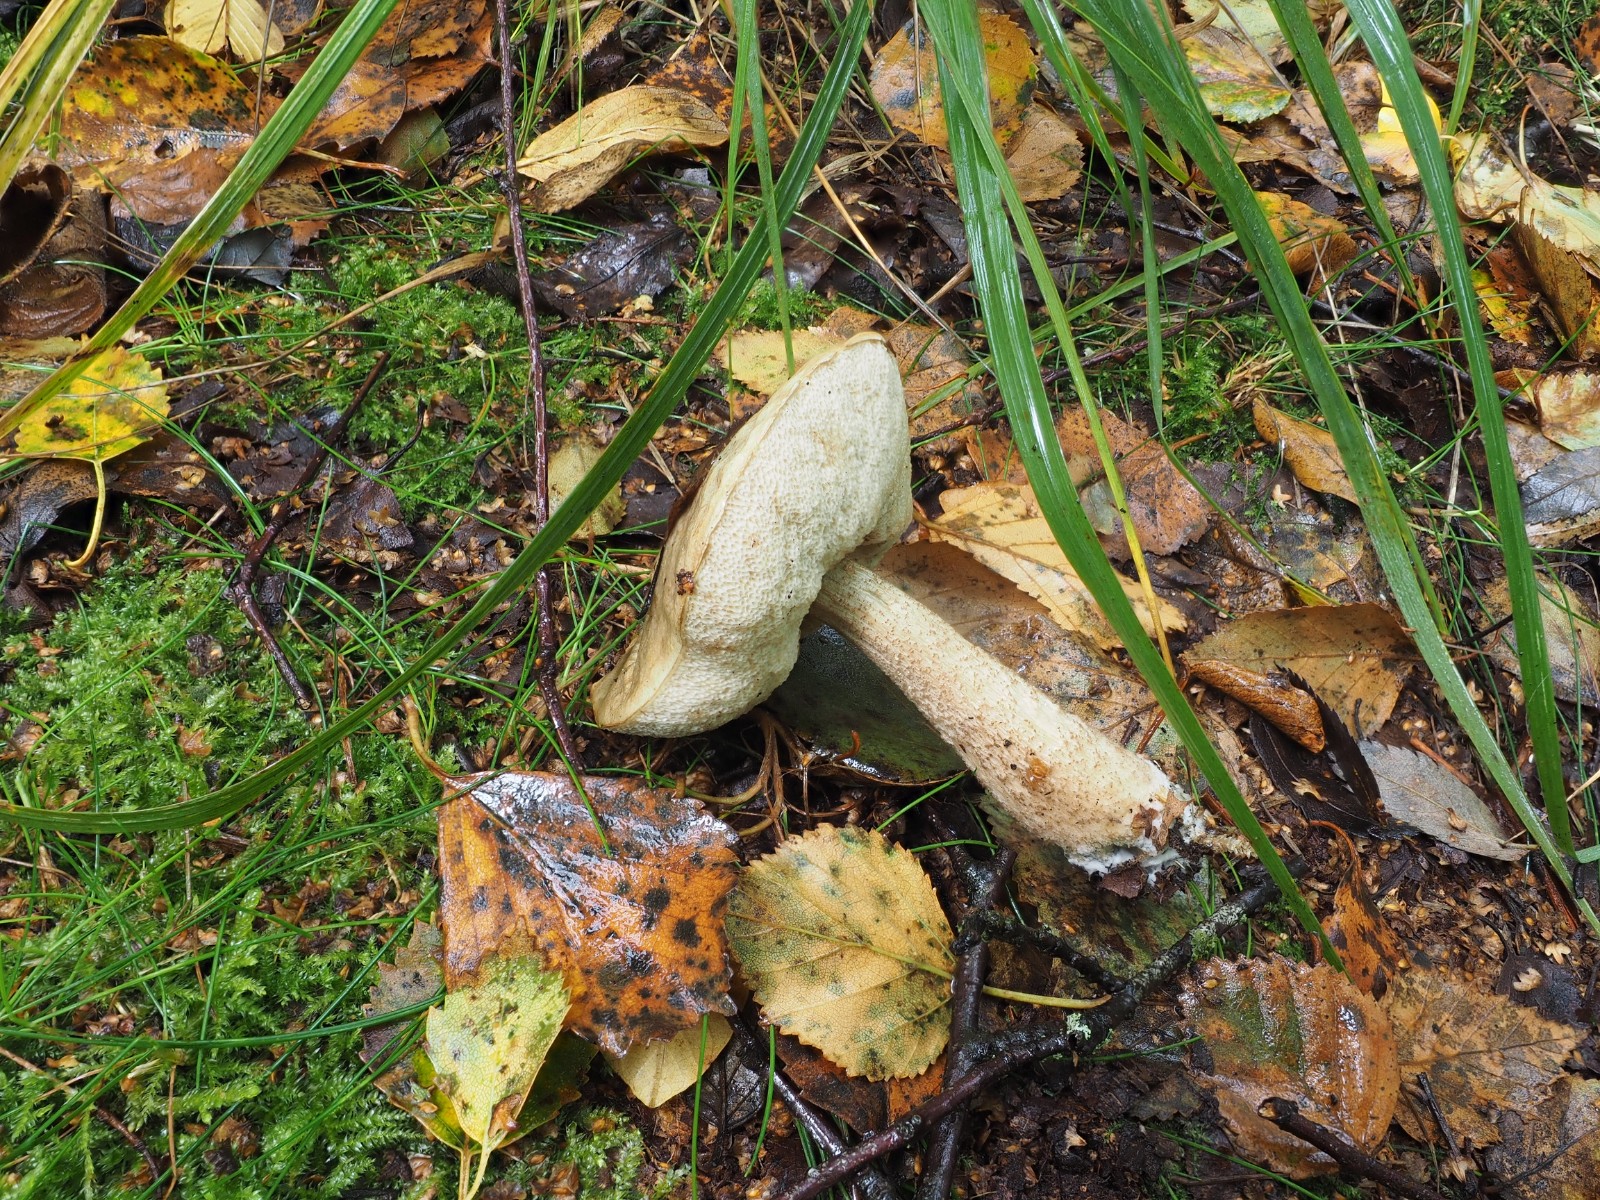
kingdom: Fungi
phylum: Basidiomycota
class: Agaricomycetes
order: Boletales
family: Boletaceae
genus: Leccinum
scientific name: Leccinum scabrum
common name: hvid skælrørhat
